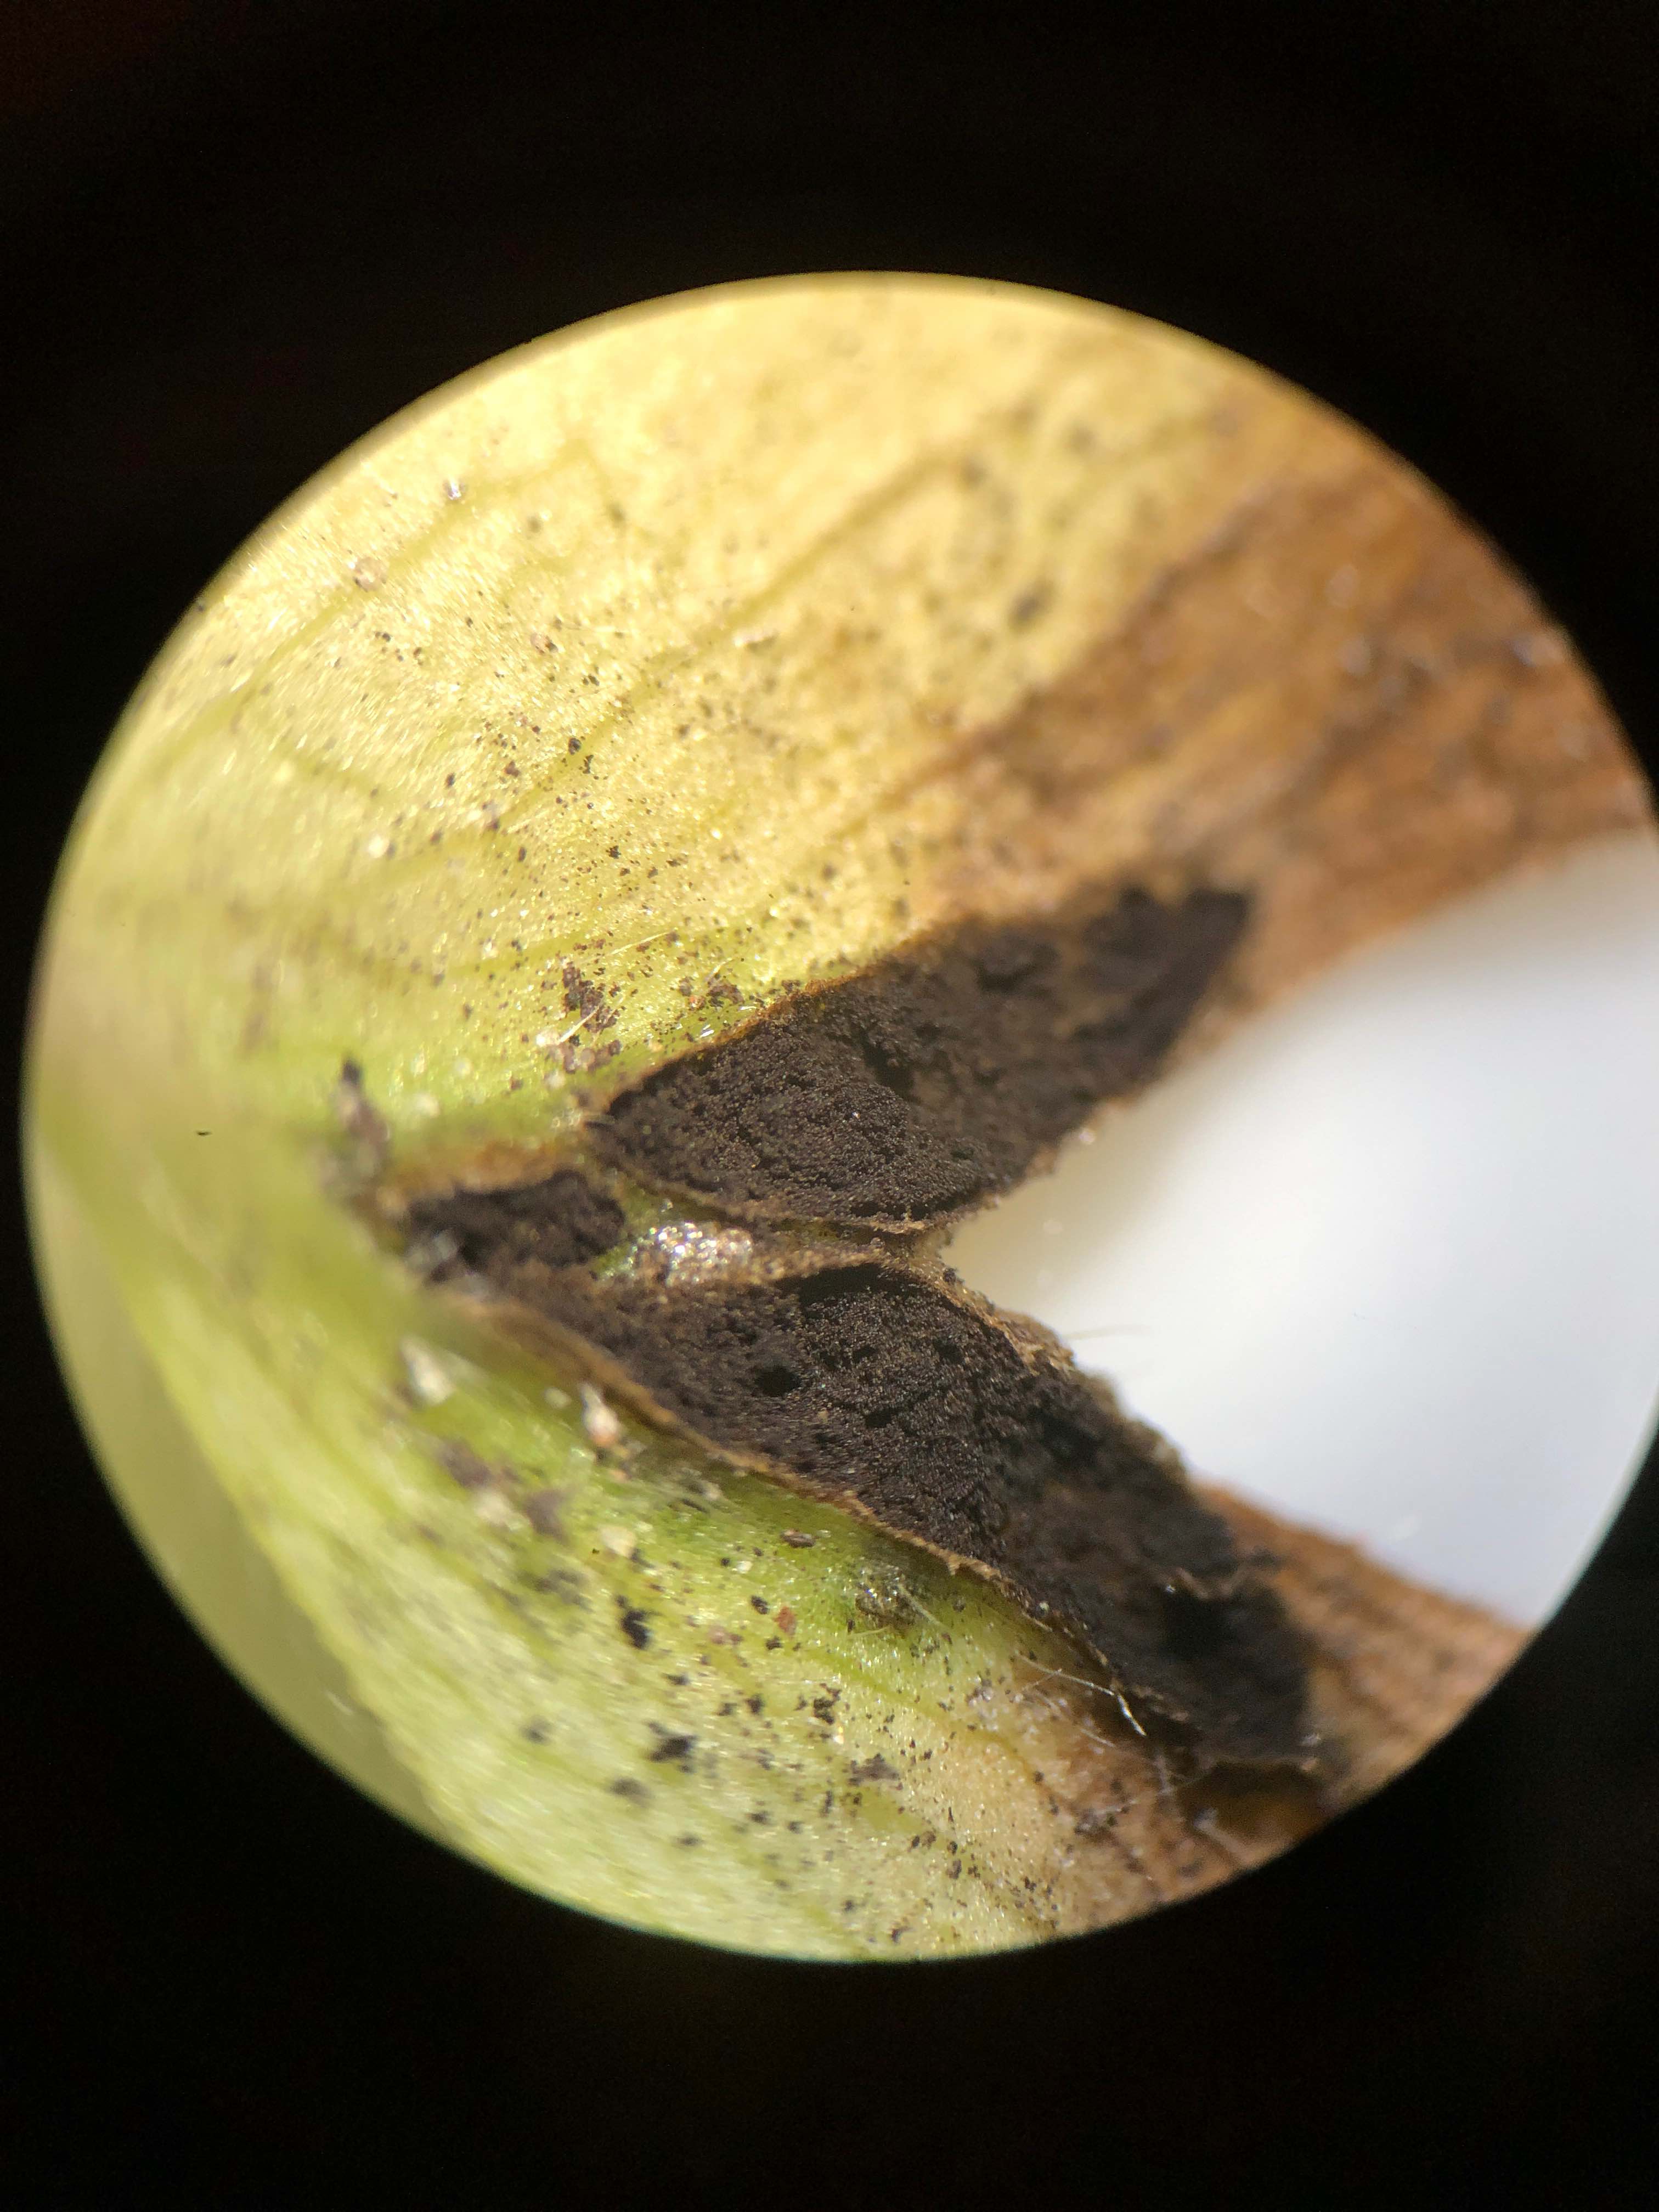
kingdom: Fungi
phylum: Basidiomycota
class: Ustilaginomycetes
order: Urocystidales
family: Urocystidaceae
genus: Urocystis
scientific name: Urocystis anemones
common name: anemone-brand
